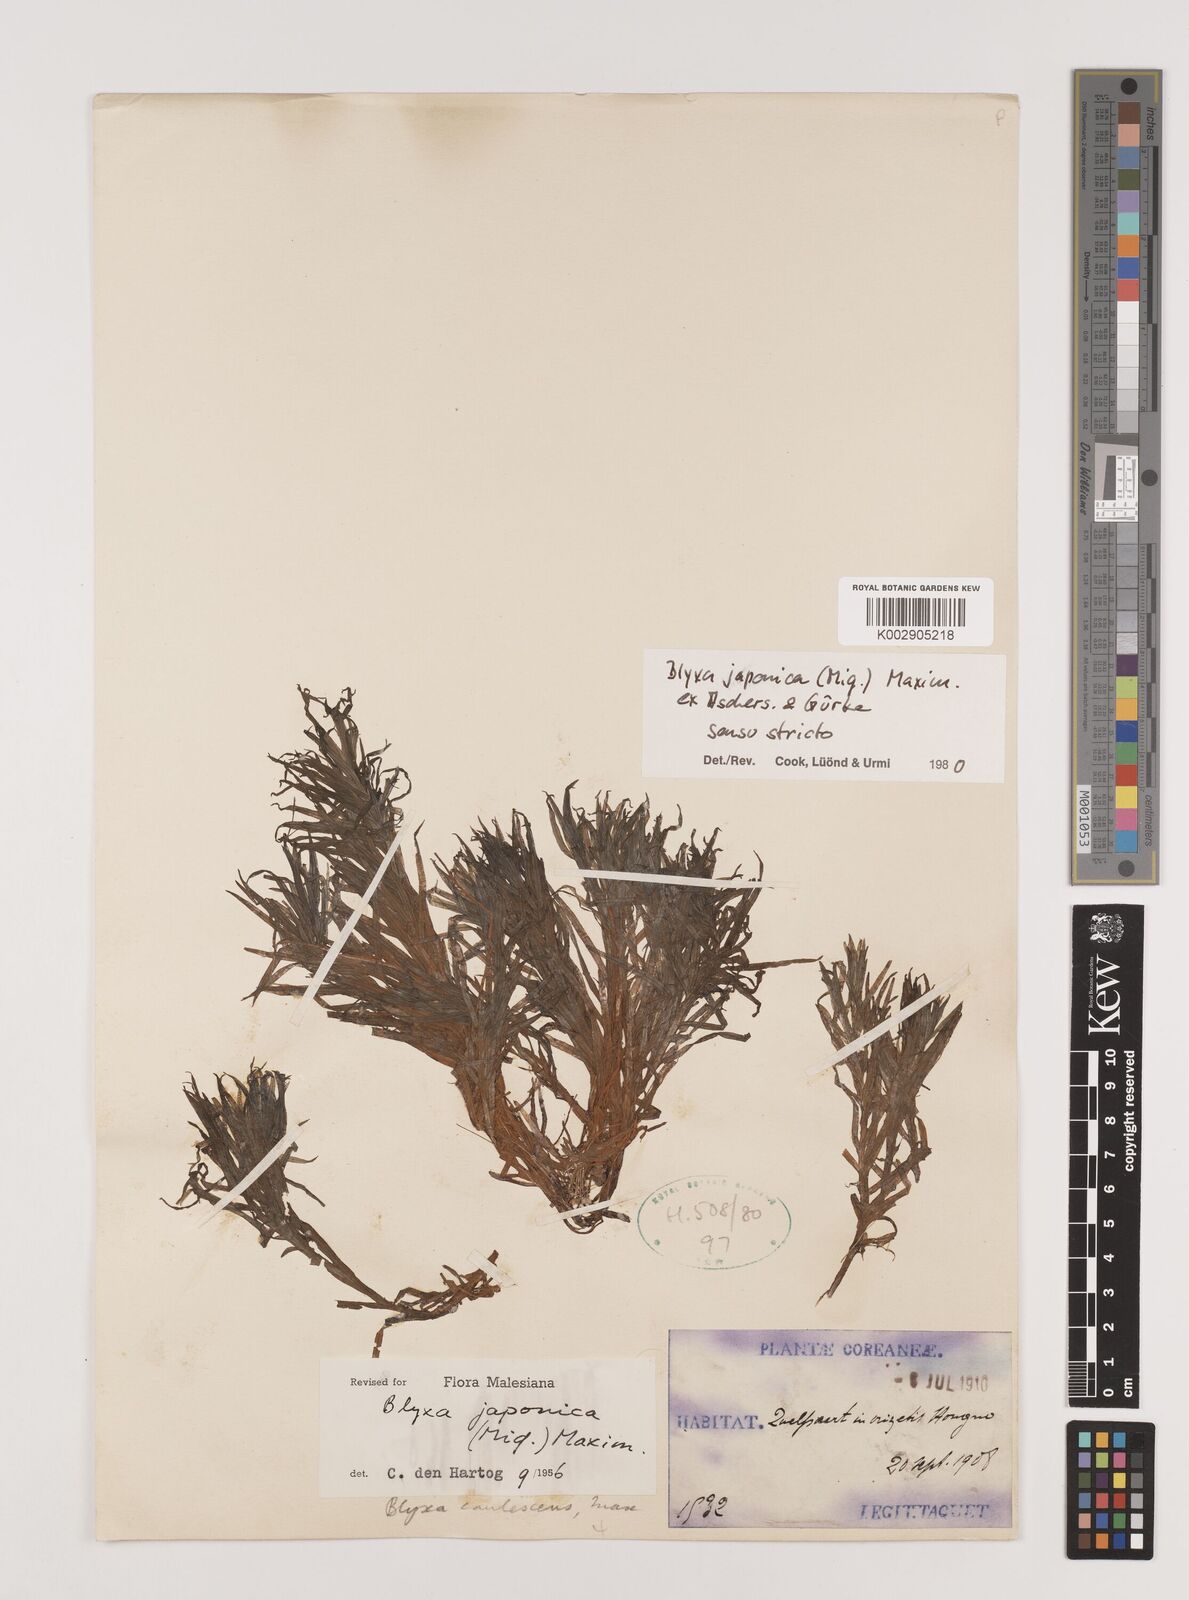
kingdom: Plantae
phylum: Tracheophyta
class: Liliopsida
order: Alismatales
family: Hydrocharitaceae
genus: Blyxa
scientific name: Blyxa japonica
